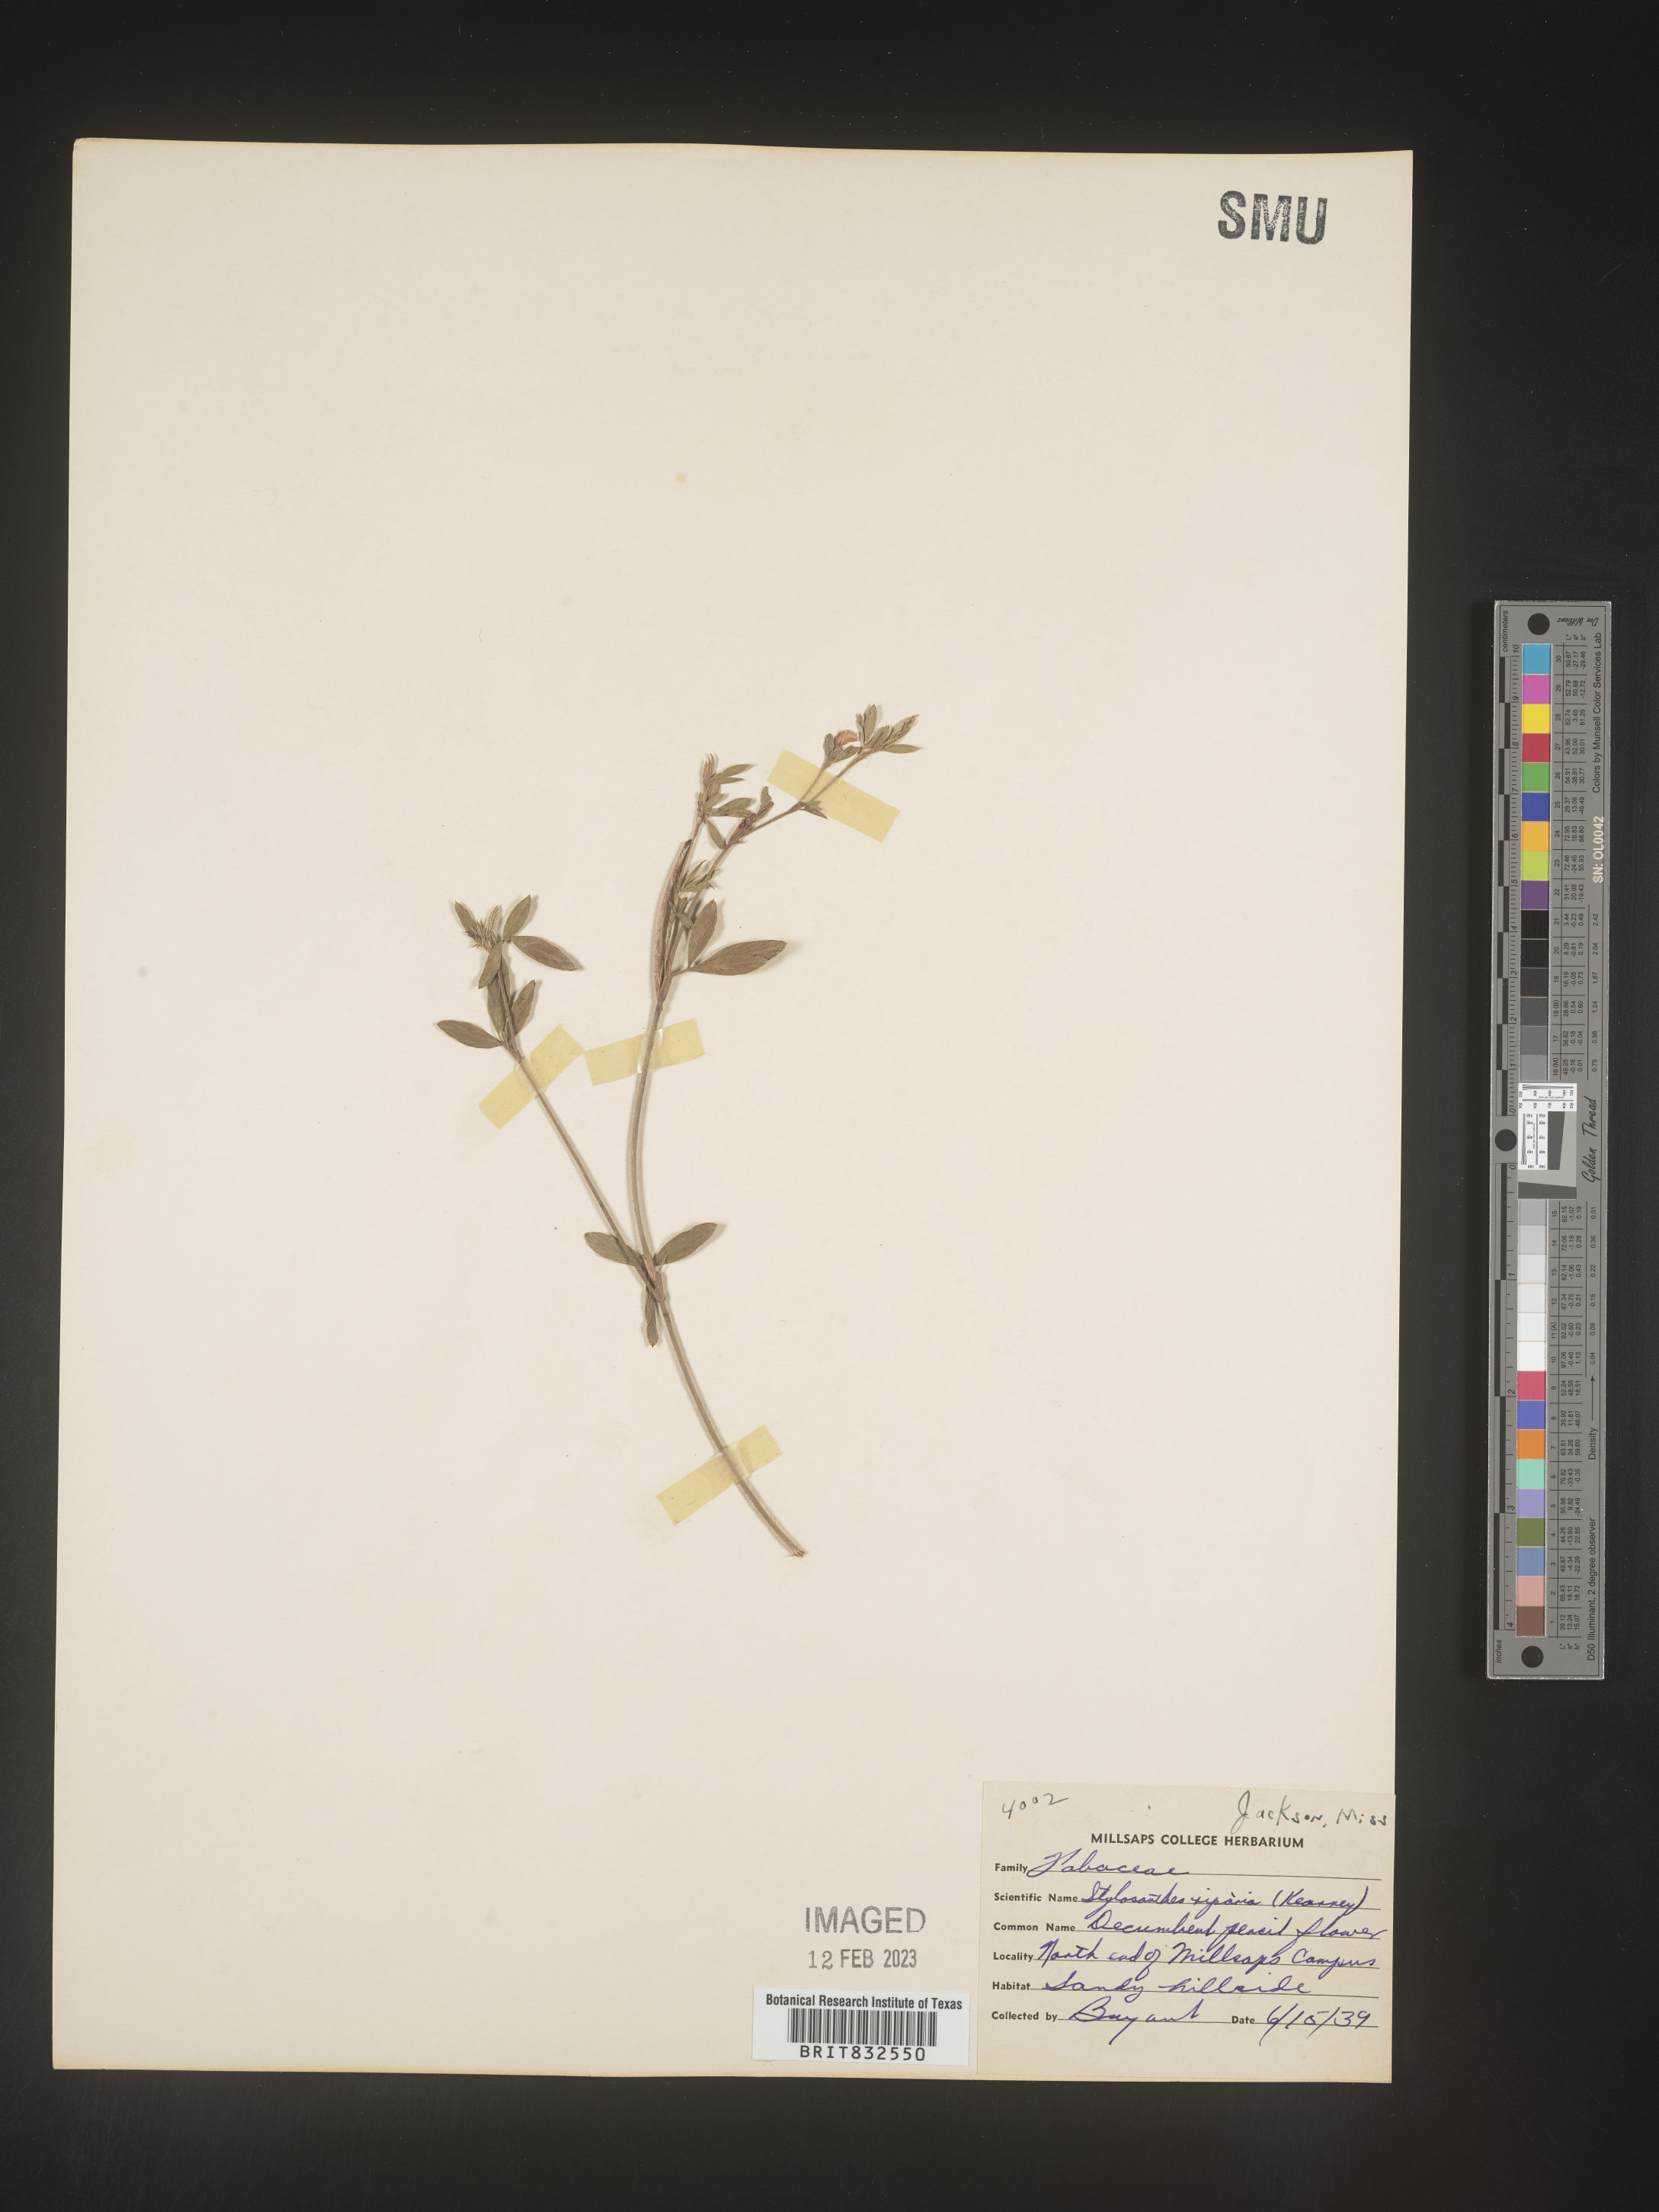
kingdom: Plantae
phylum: Tracheophyta
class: Magnoliopsida
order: Fabales
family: Fabaceae
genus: Stylosanthes
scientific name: Stylosanthes
